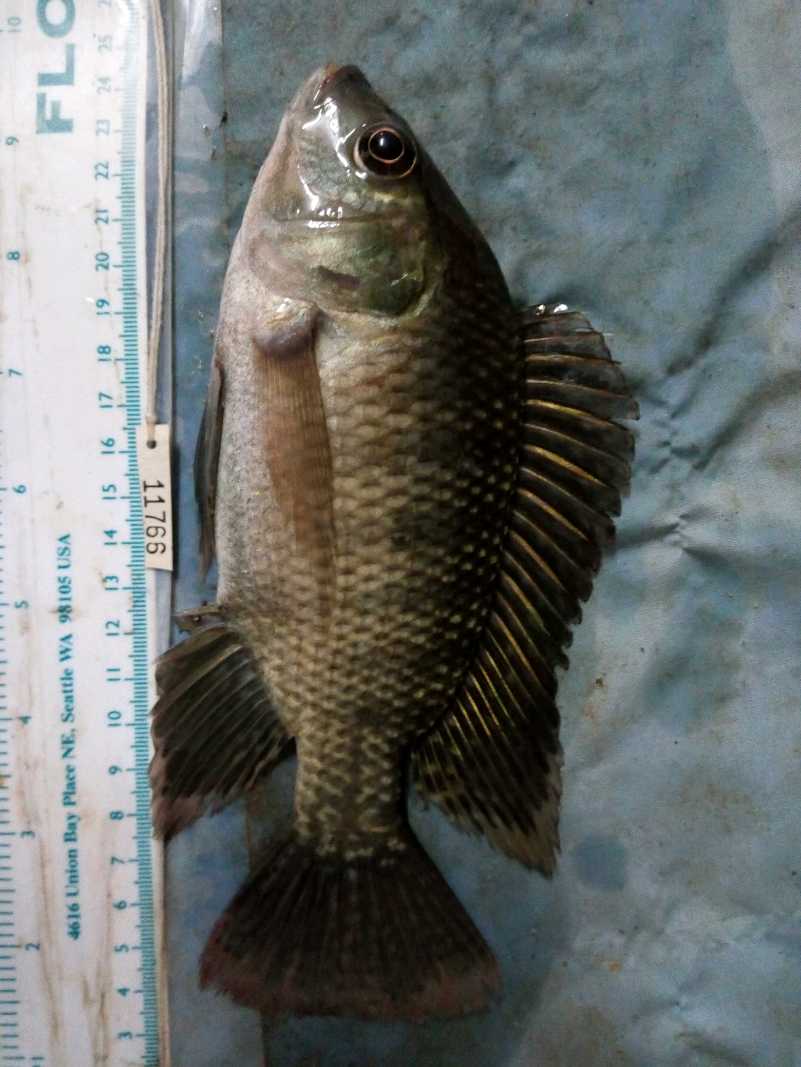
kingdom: Animalia
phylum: Chordata
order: Perciformes
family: Cichlidae
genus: Oreochromis
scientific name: Oreochromis niloticus
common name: Nile tilapia
